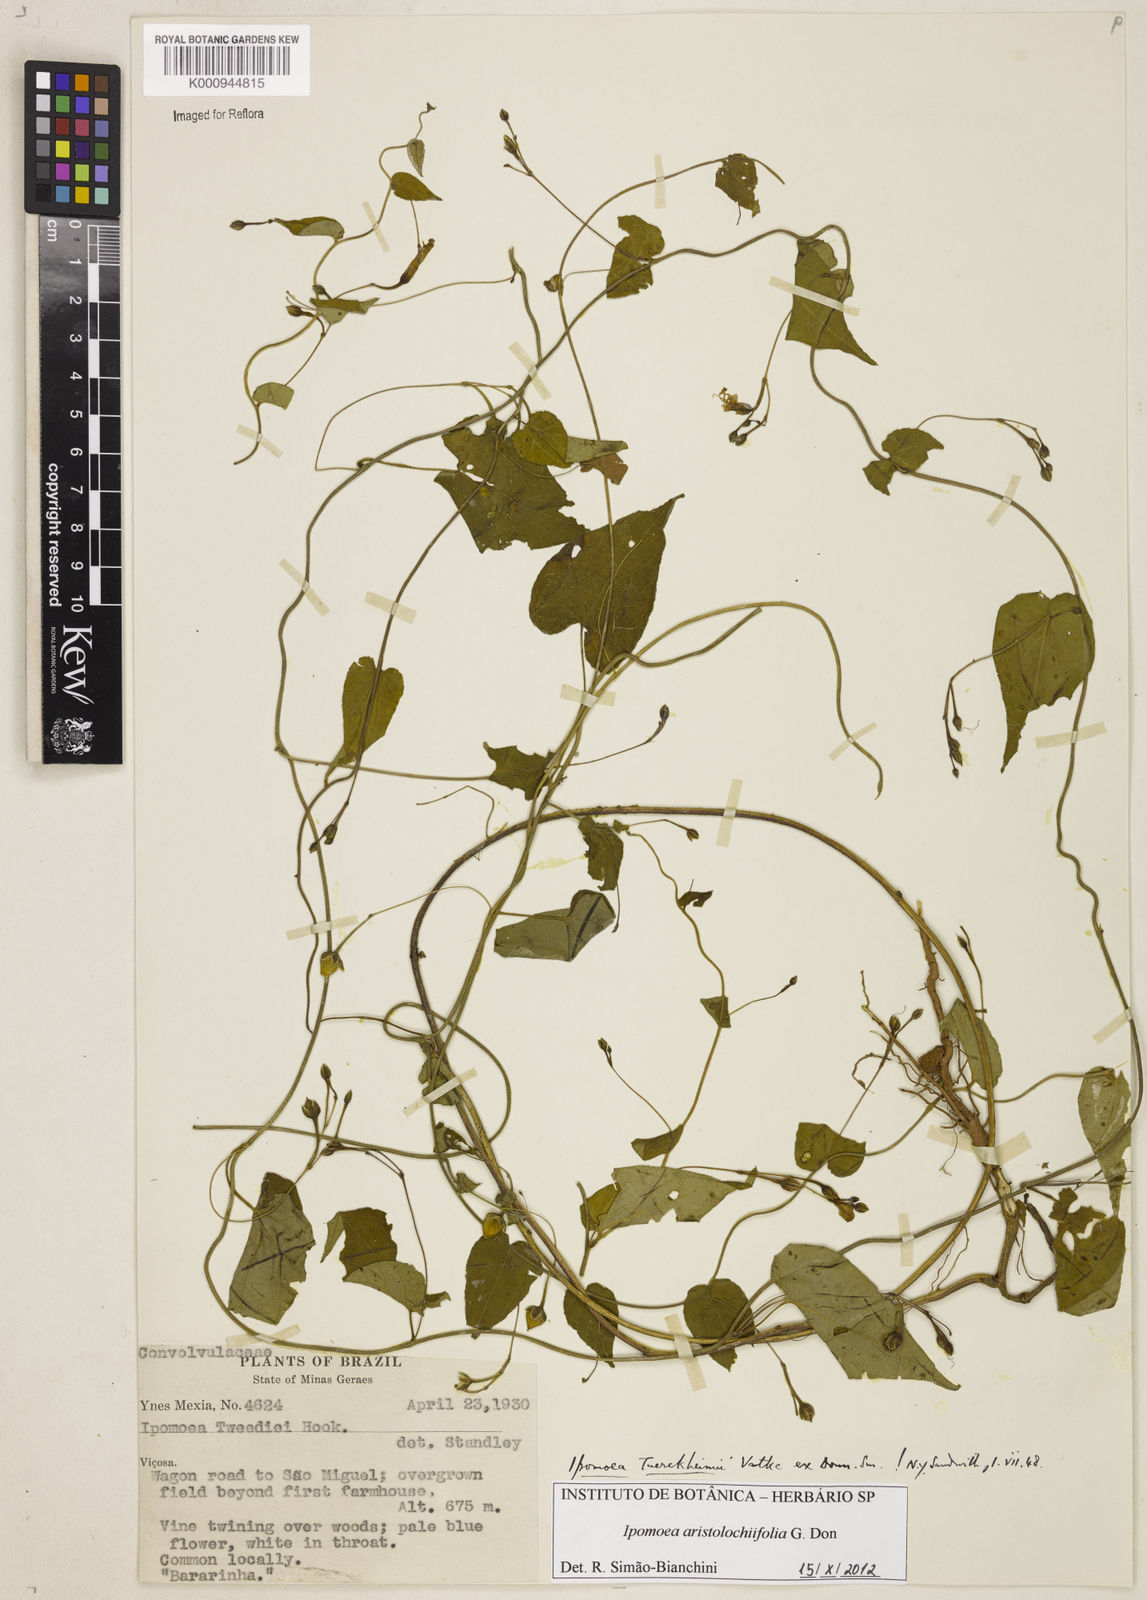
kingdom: Plantae
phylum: Tracheophyta
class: Magnoliopsida
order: Solanales
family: Convolvulaceae
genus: Ipomoea
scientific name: Ipomoea
